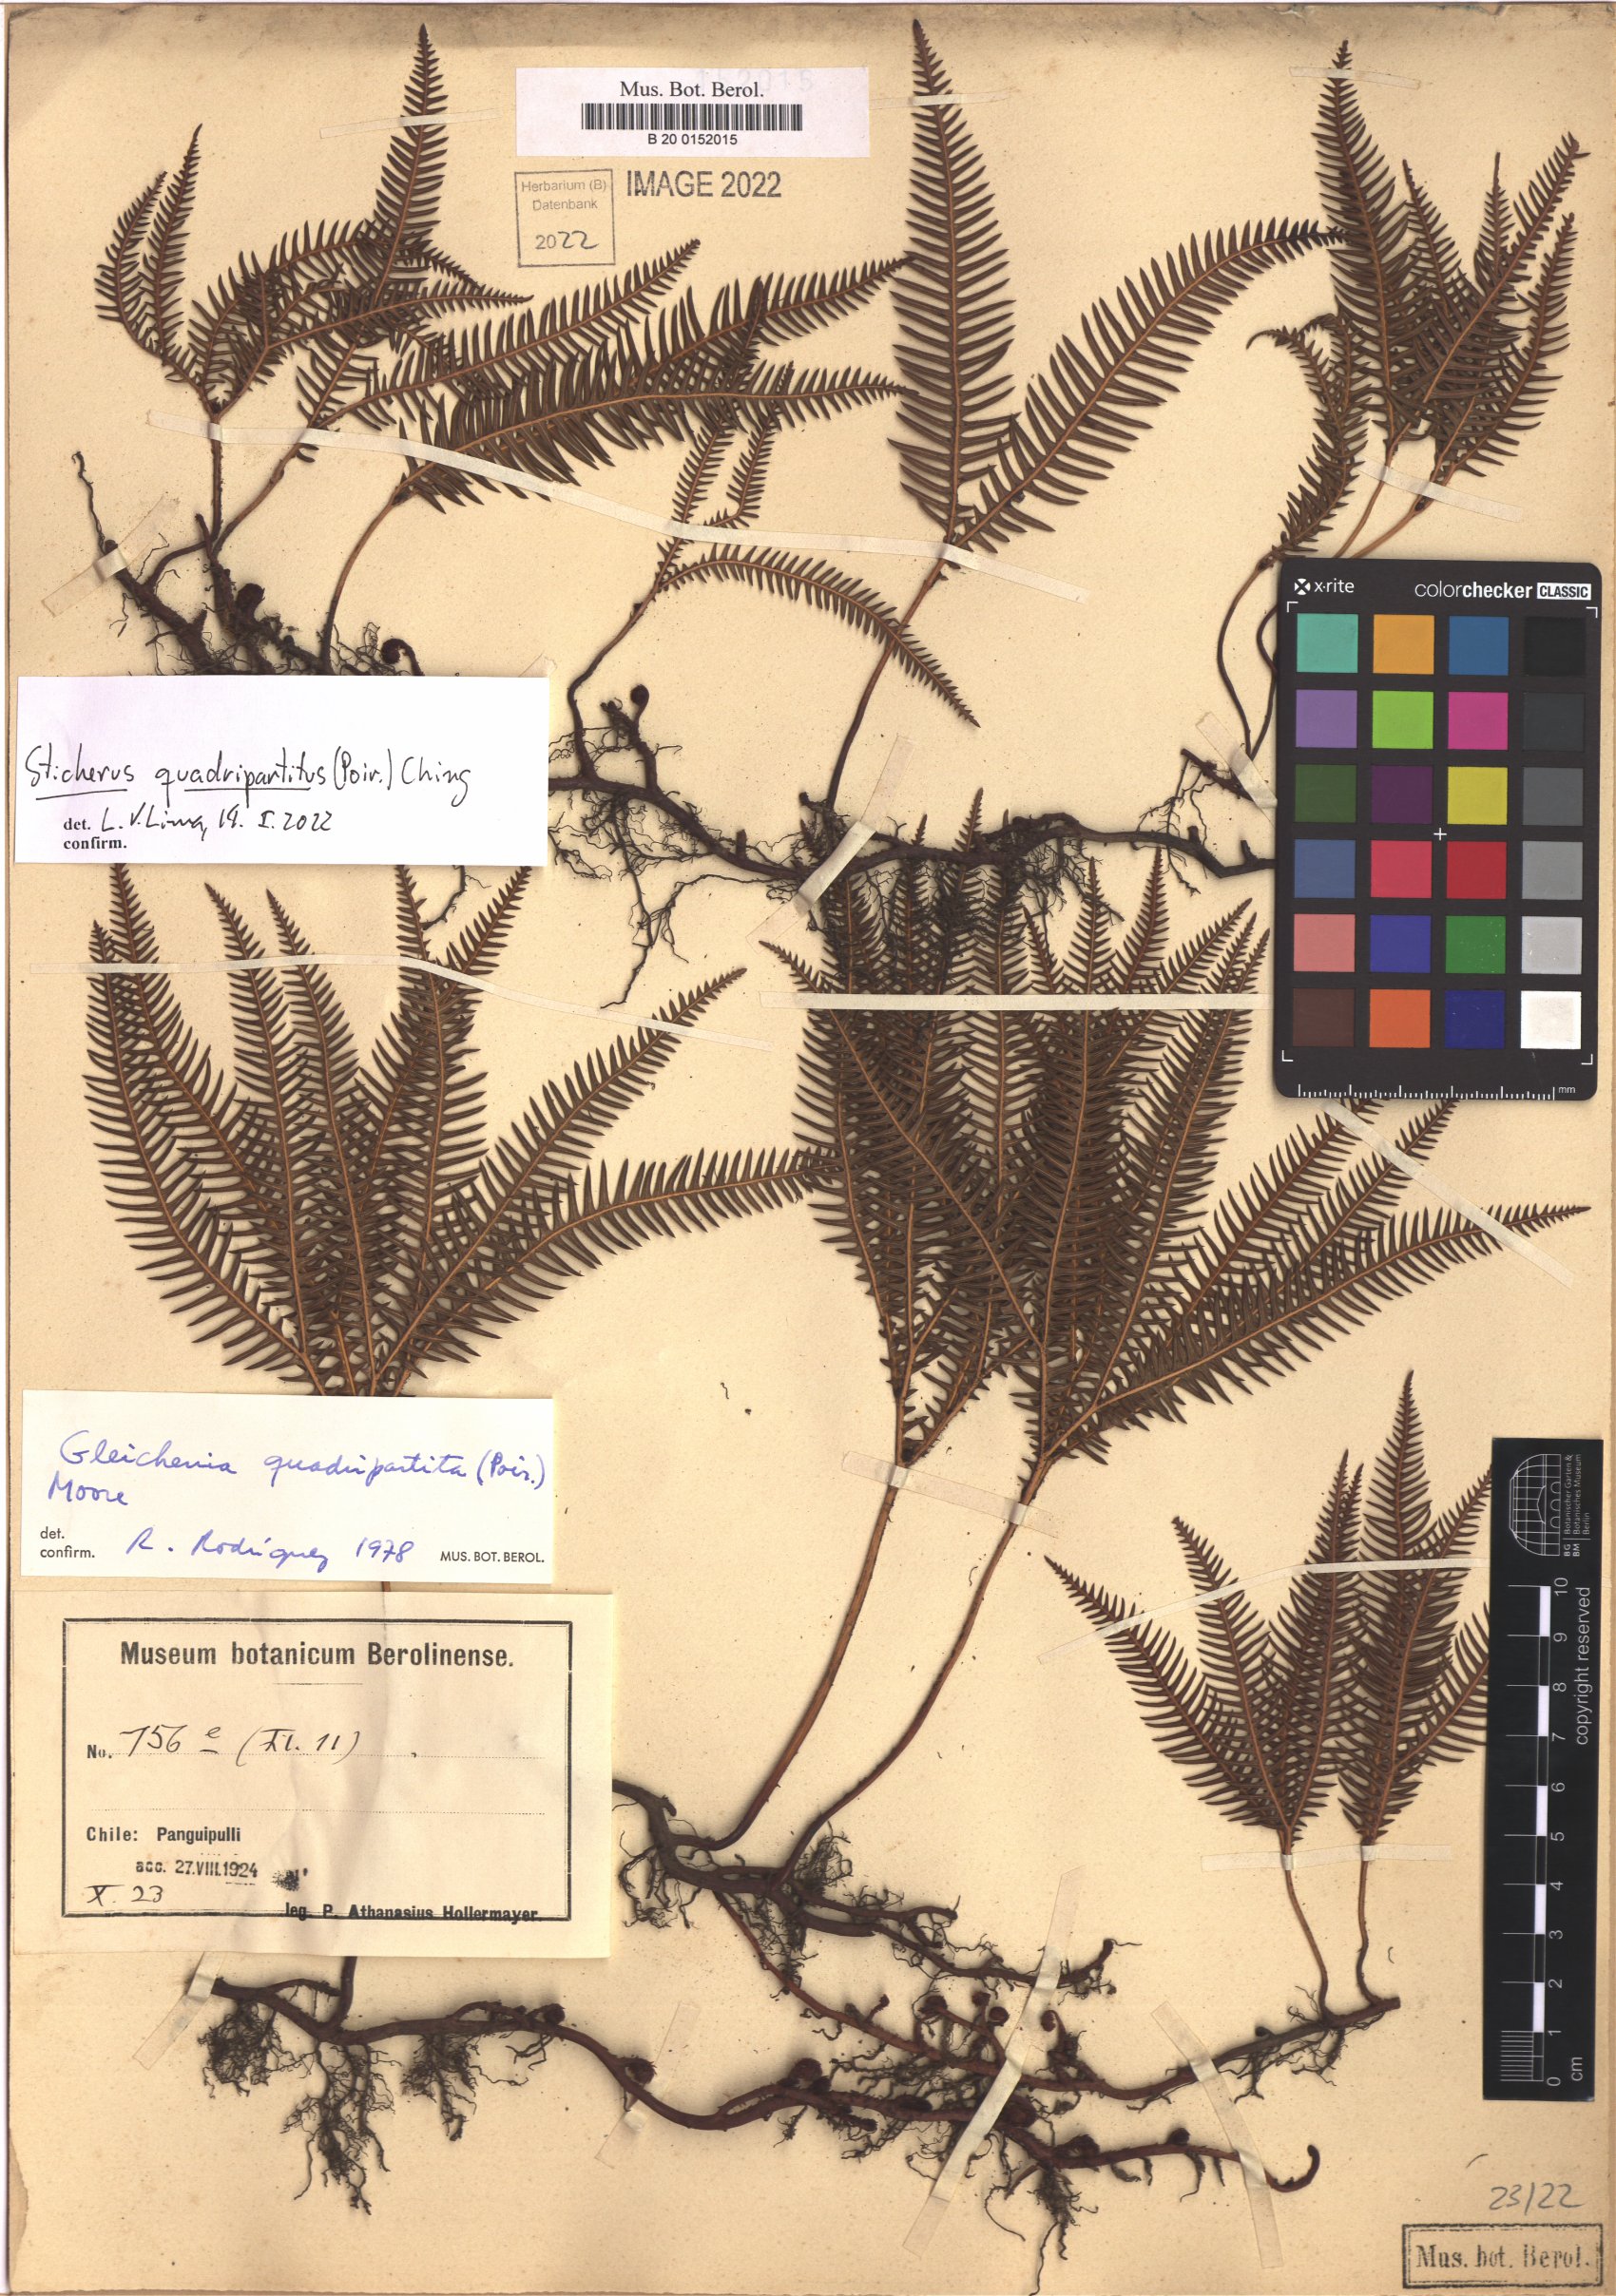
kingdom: Plantae
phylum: Tracheophyta
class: Polypodiopsida
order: Gleicheniales
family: Gleicheniaceae
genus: Sticherus
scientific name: Sticherus quadripartitus
